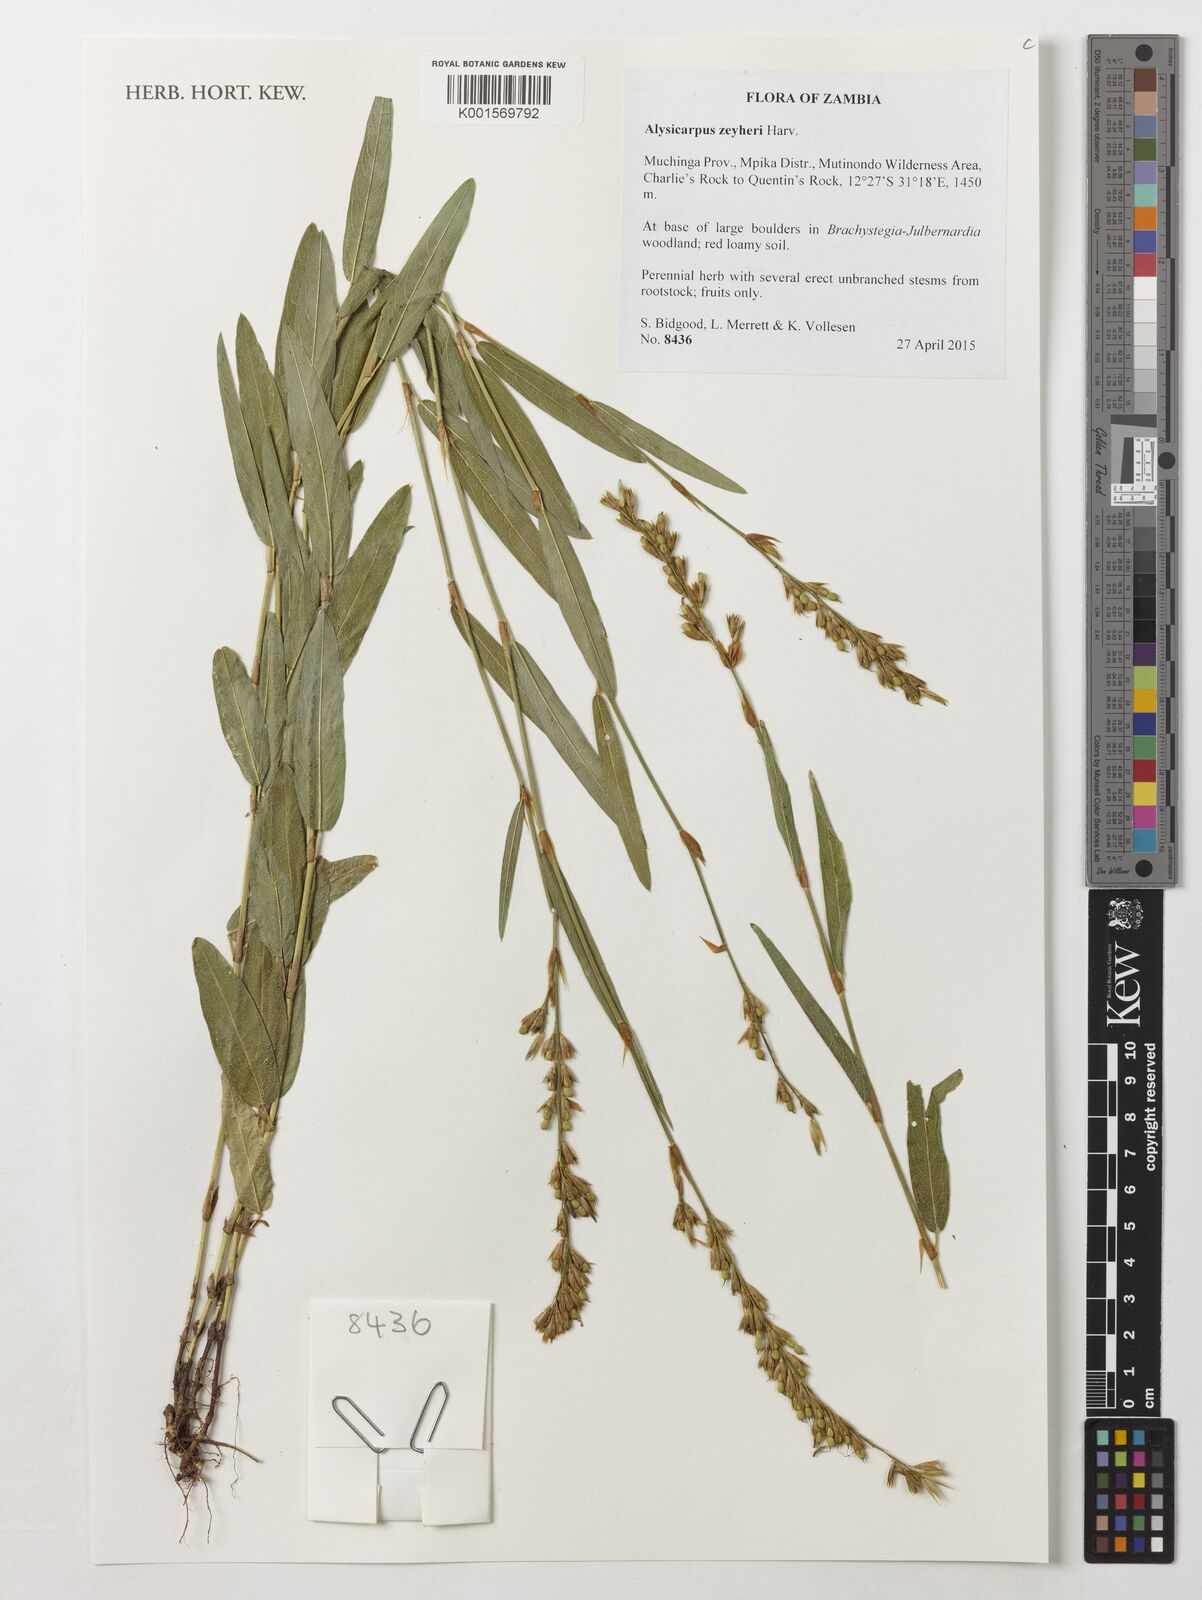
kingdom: Plantae
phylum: Tracheophyta
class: Magnoliopsida
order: Fabales
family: Fabaceae
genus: Alysicarpus
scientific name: Alysicarpus zeyheri
